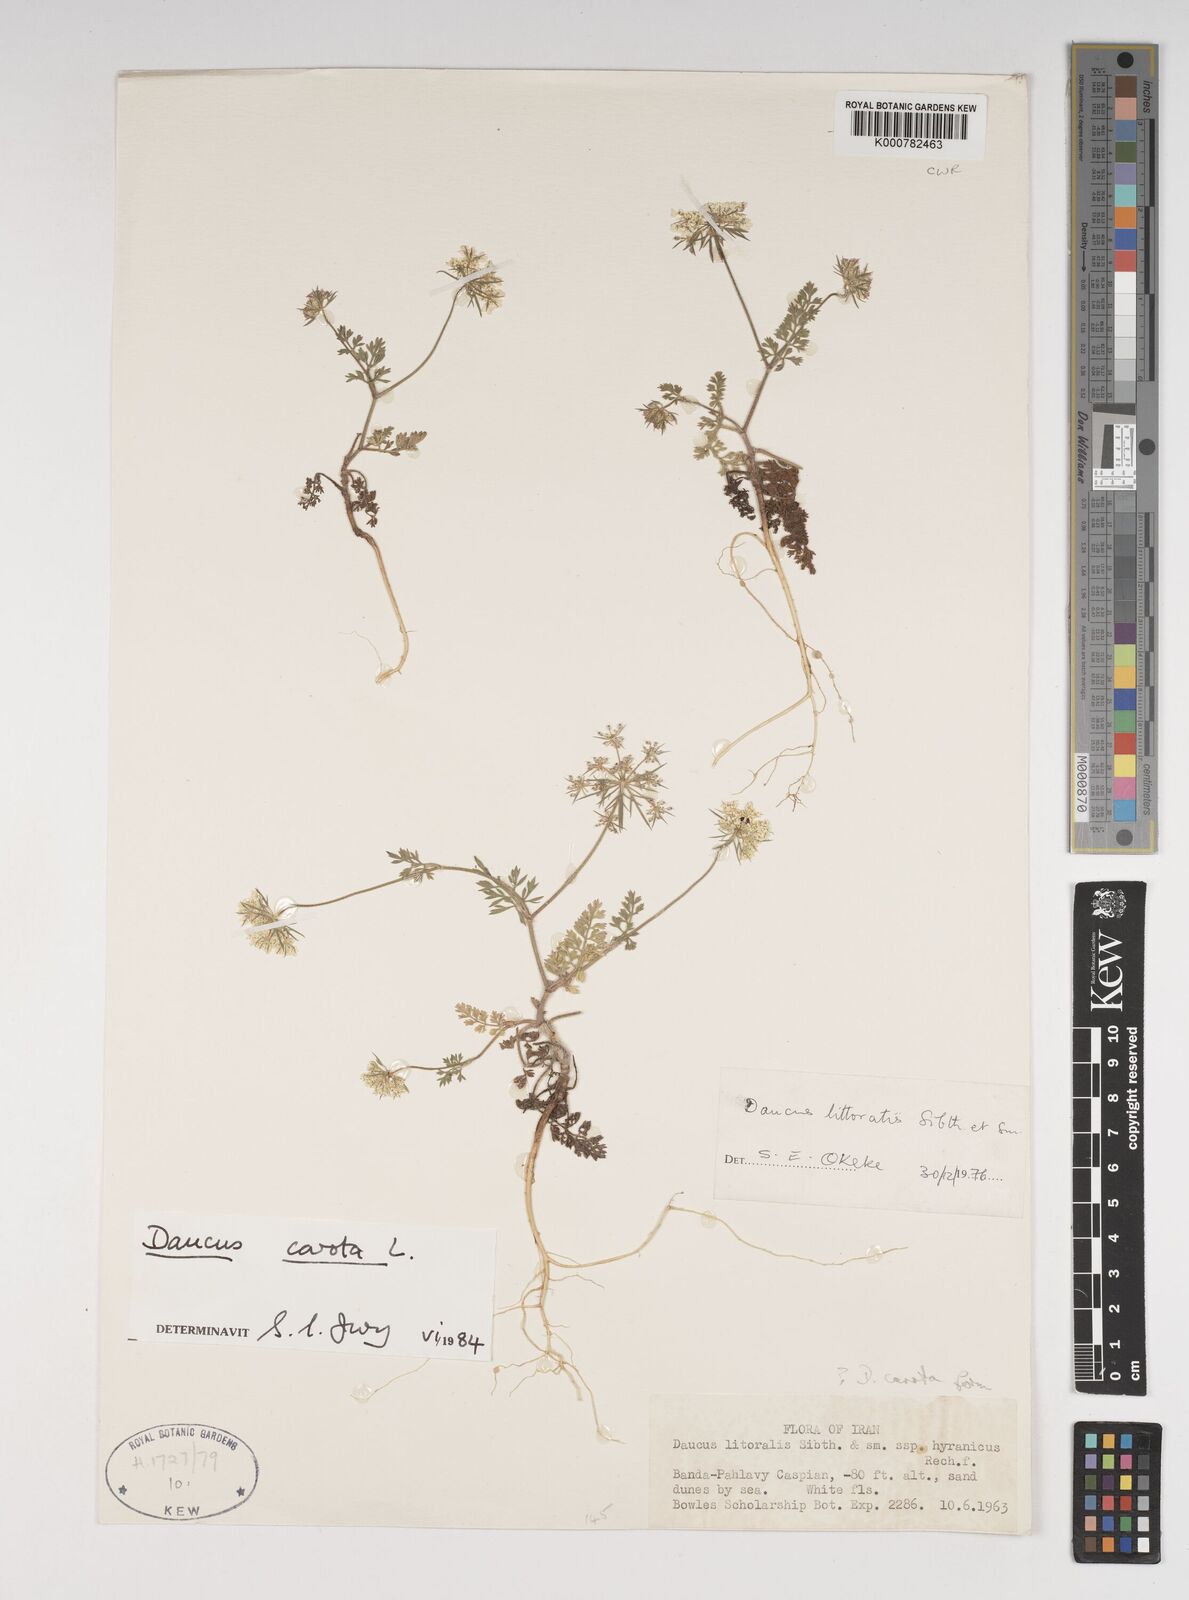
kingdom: Plantae
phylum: Tracheophyta
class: Magnoliopsida
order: Apiales
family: Apiaceae
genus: Daucus
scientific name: Daucus carota
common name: Wild carrot
